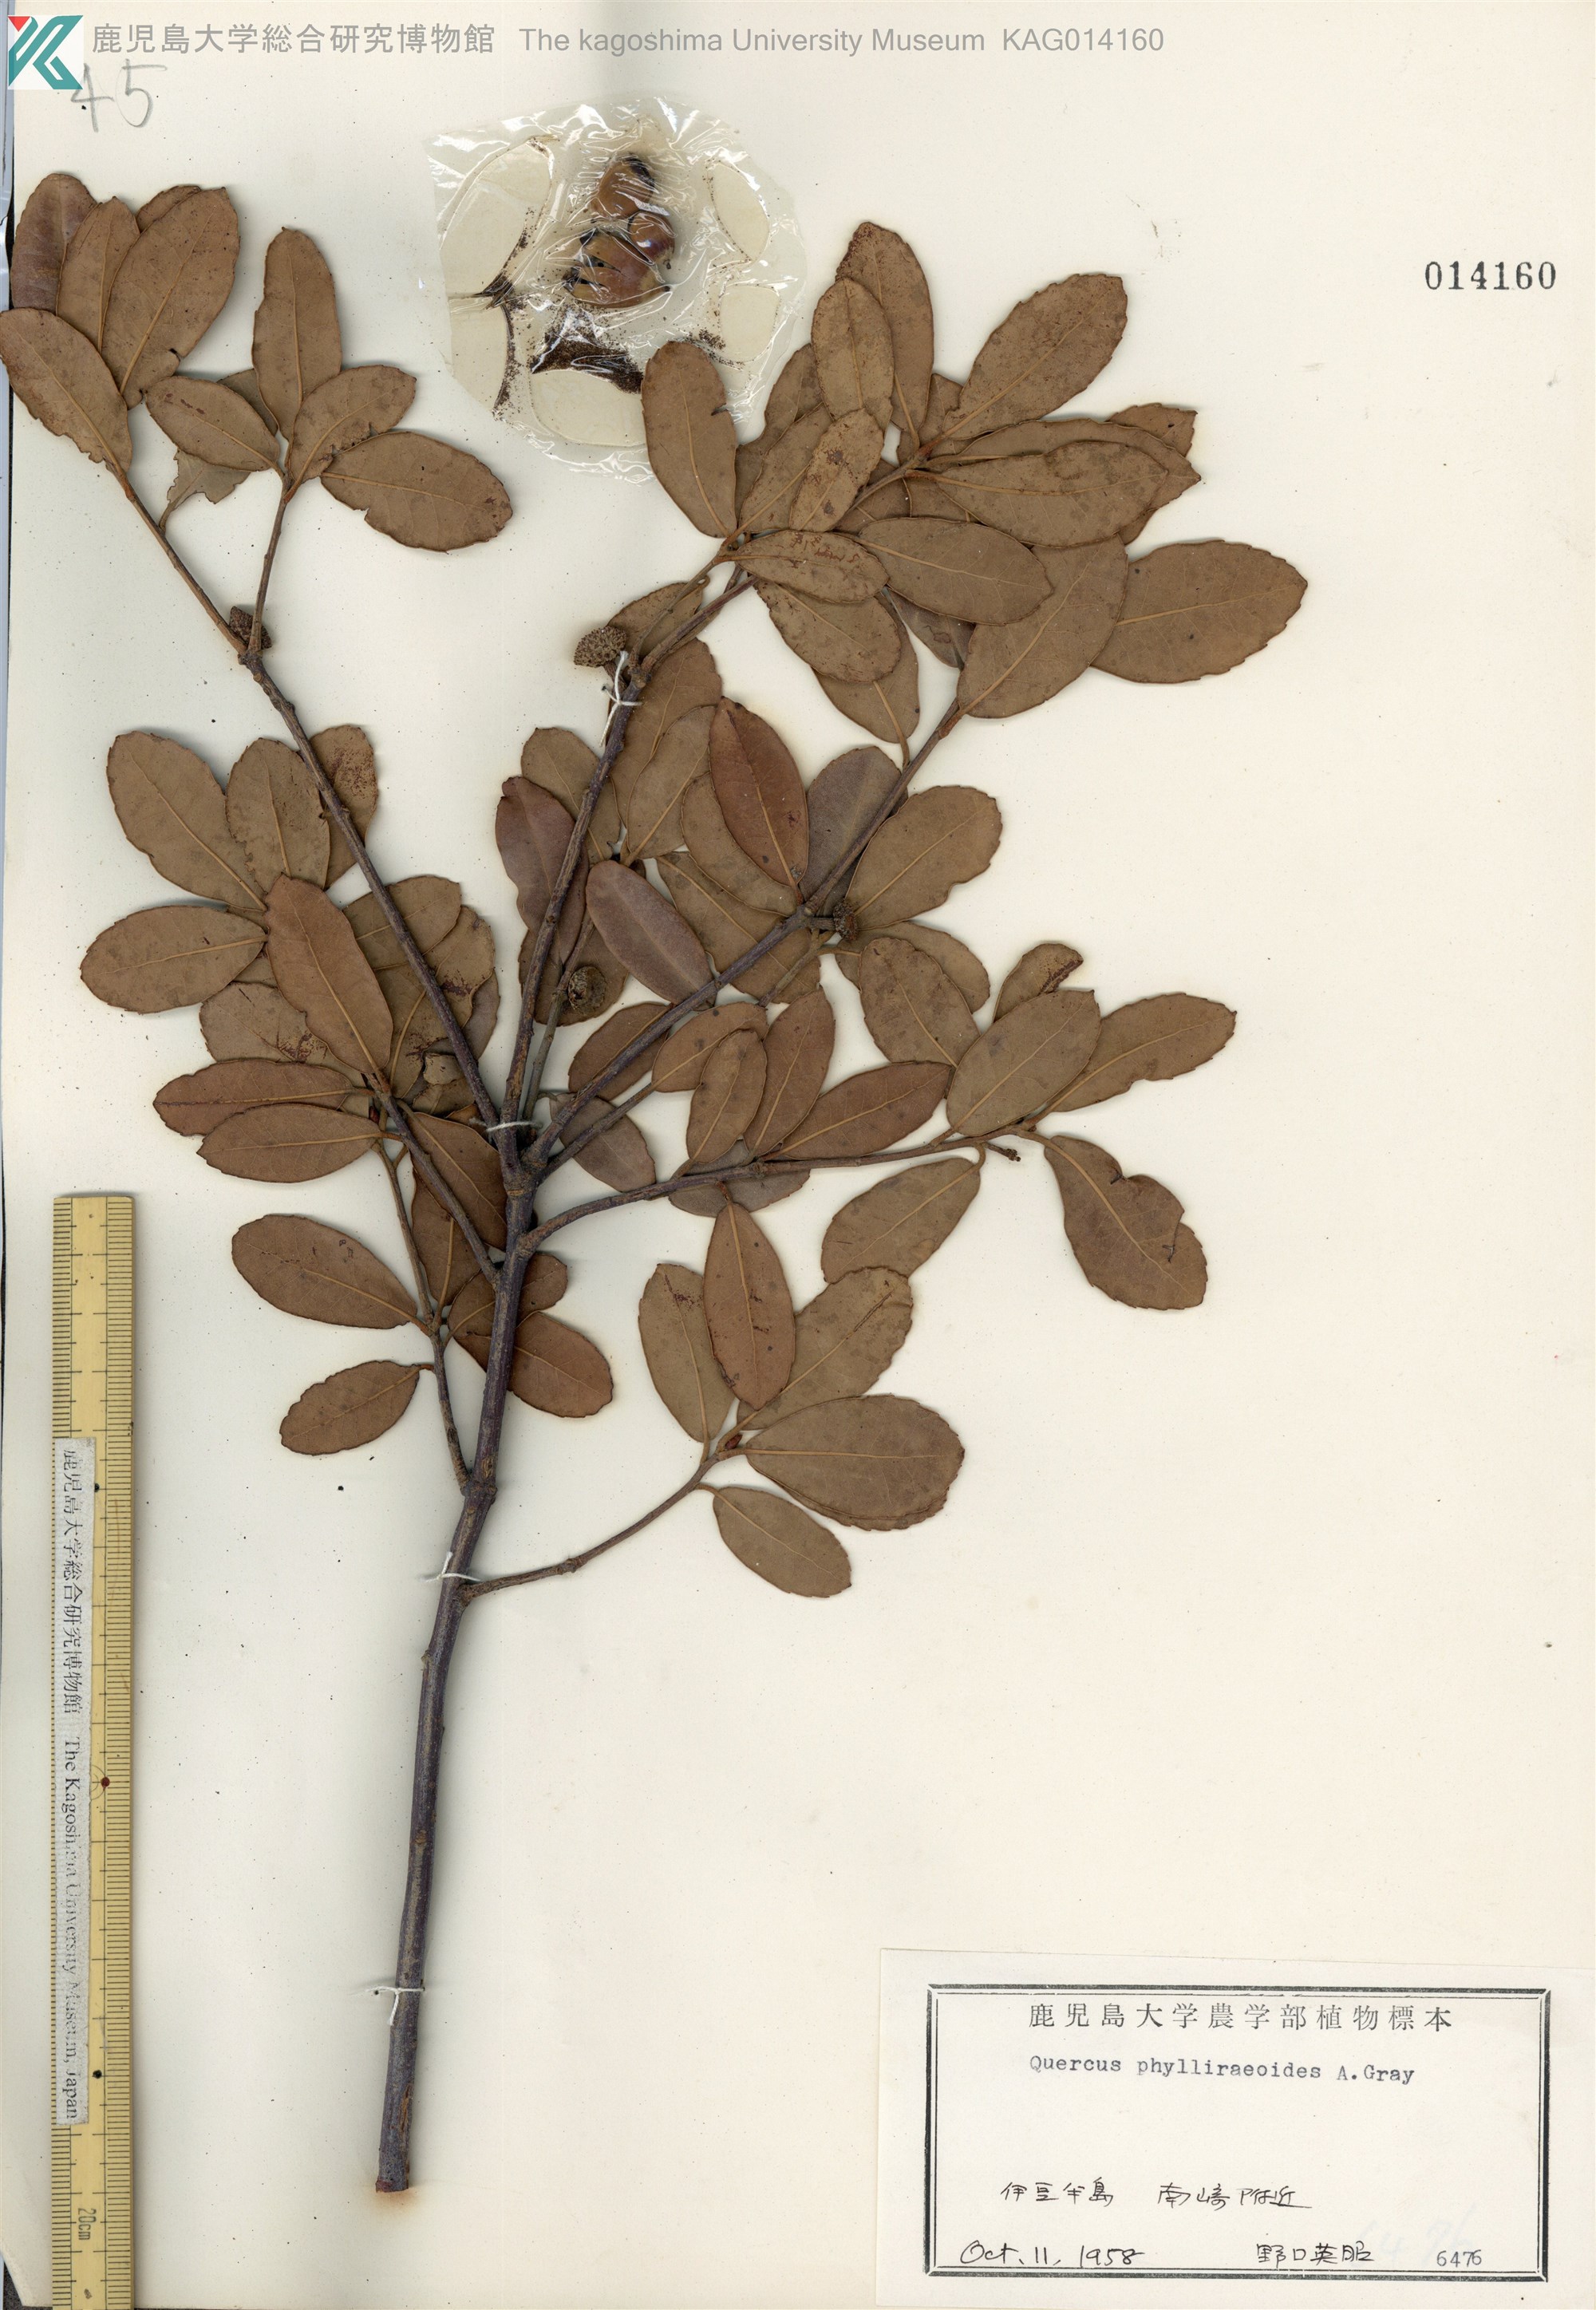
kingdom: Plantae
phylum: Tracheophyta
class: Magnoliopsida
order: Fagales
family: Fagaceae
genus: Quercus
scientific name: Quercus phillyraeoides
